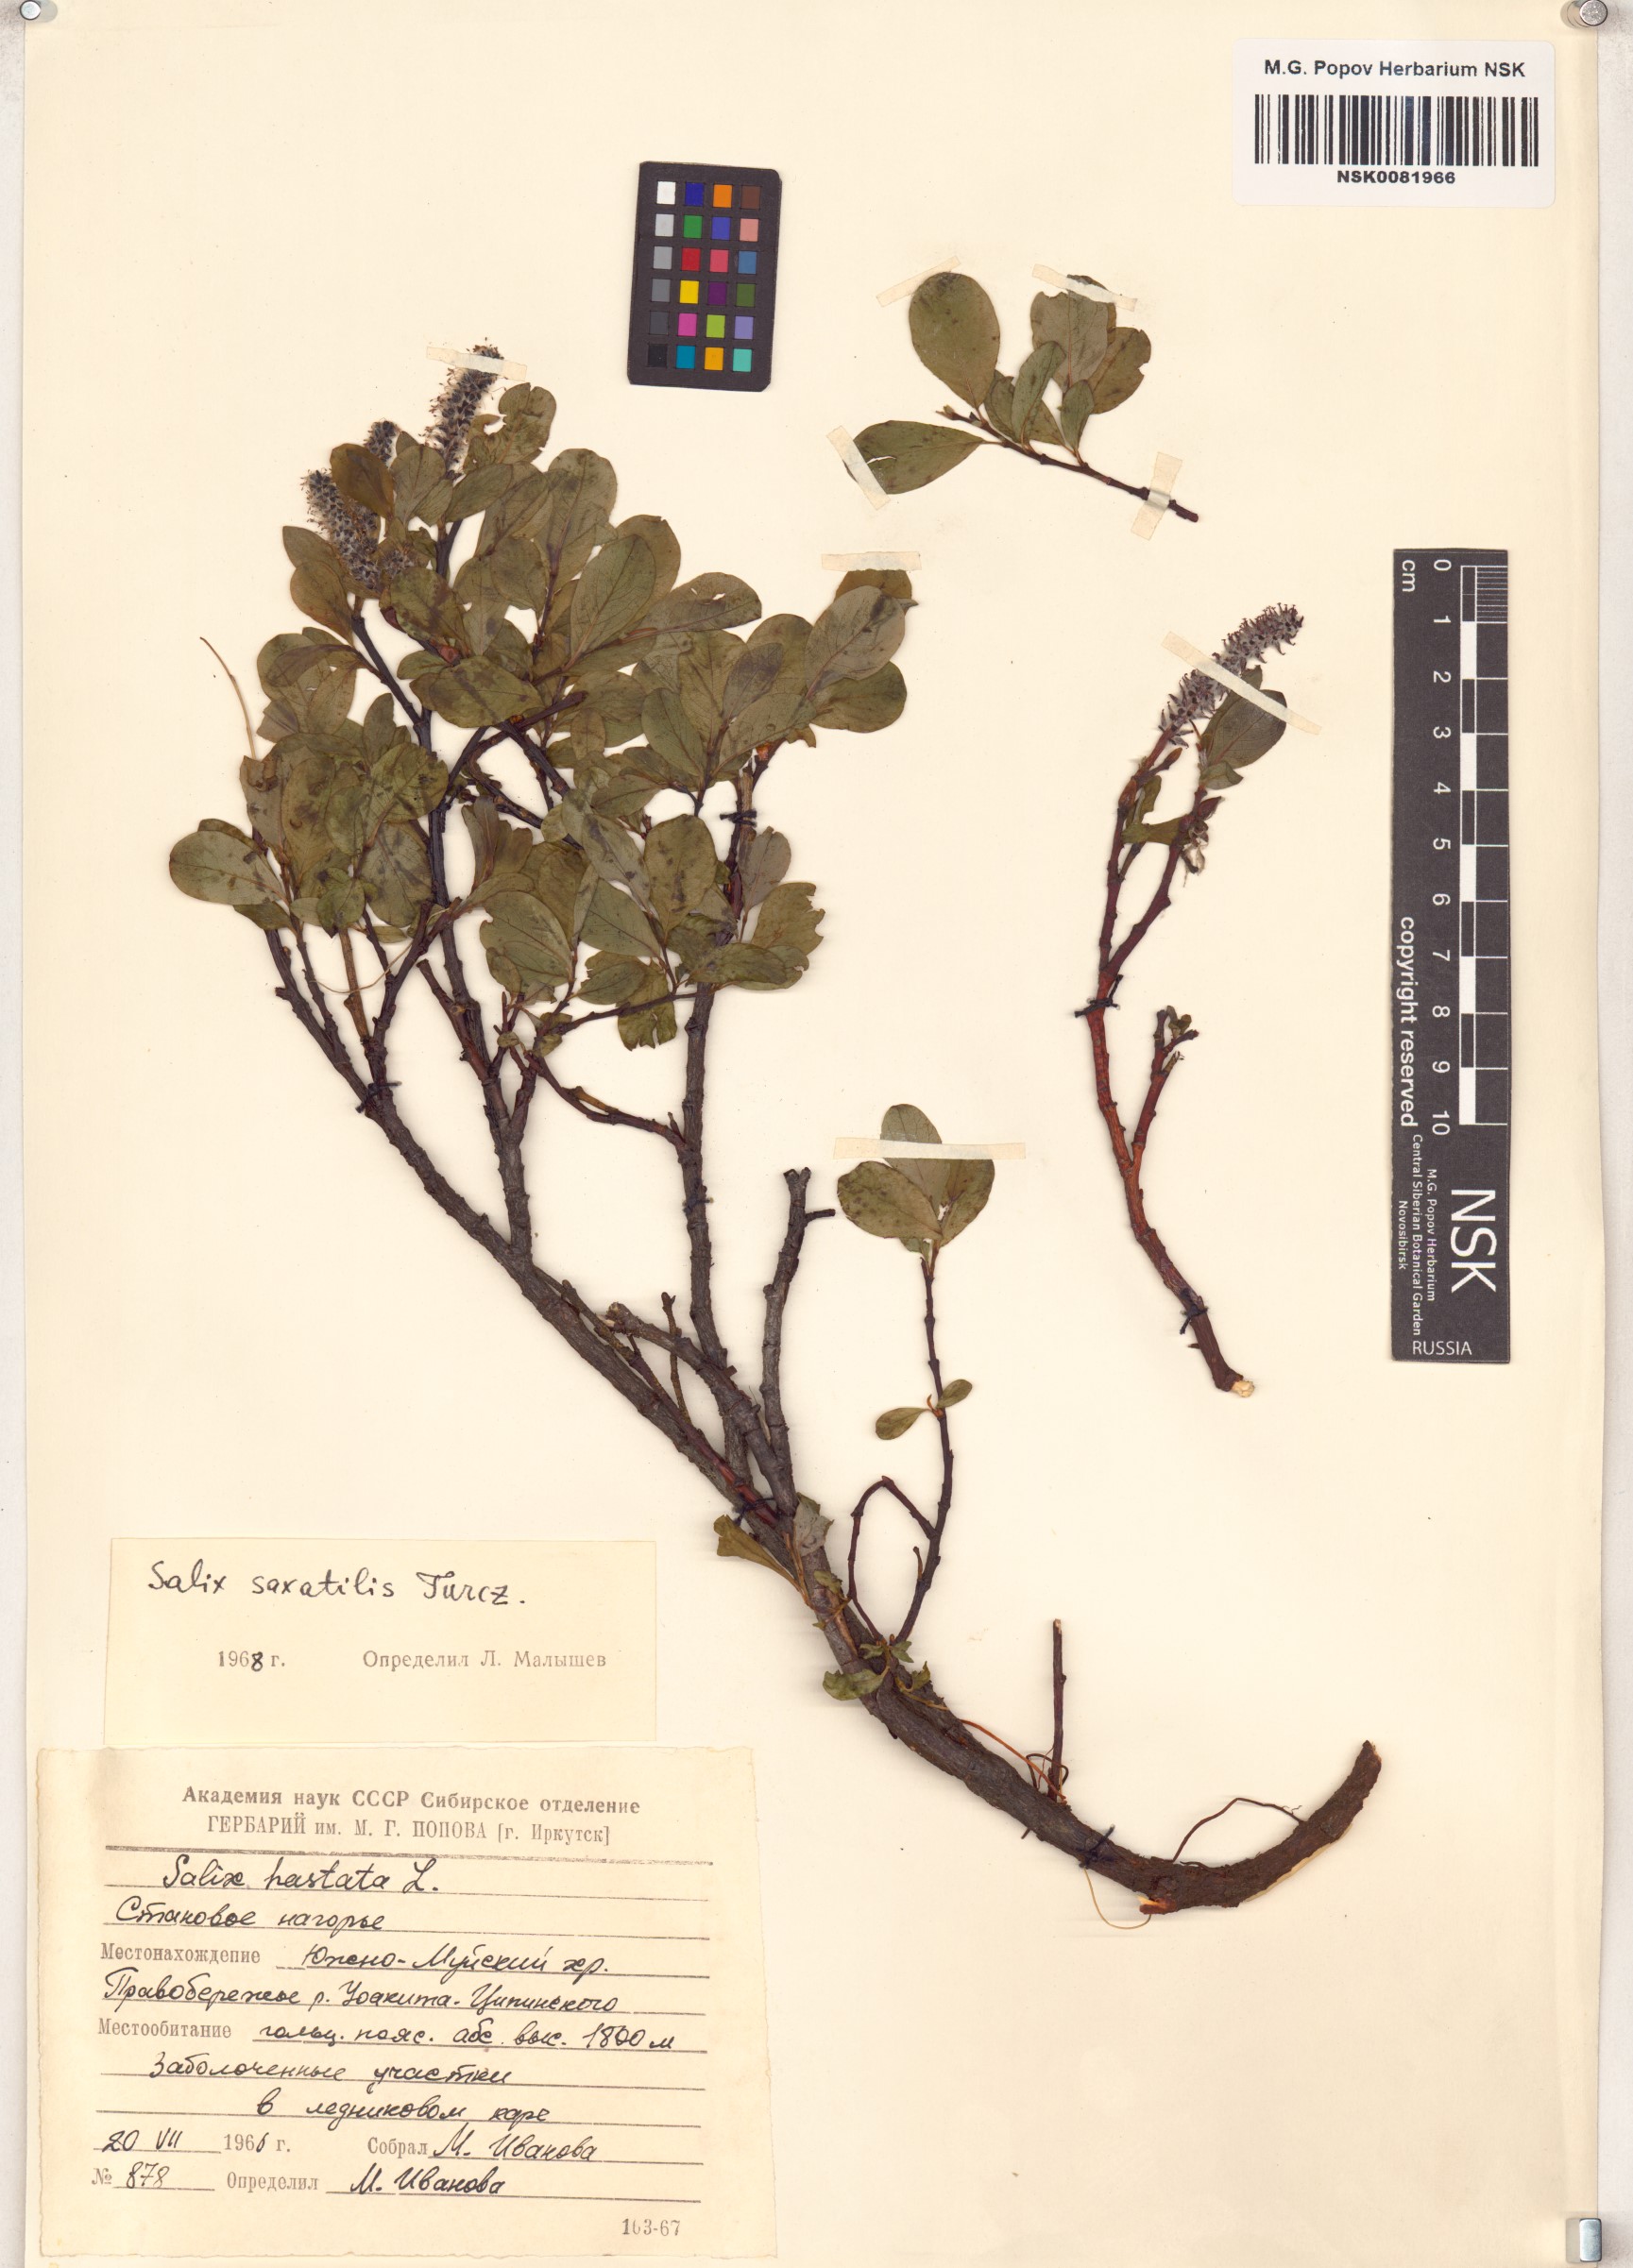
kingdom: Plantae
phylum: Tracheophyta
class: Magnoliopsida
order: Malpighiales
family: Salicaceae
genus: Salix
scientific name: Salix saxatilis
